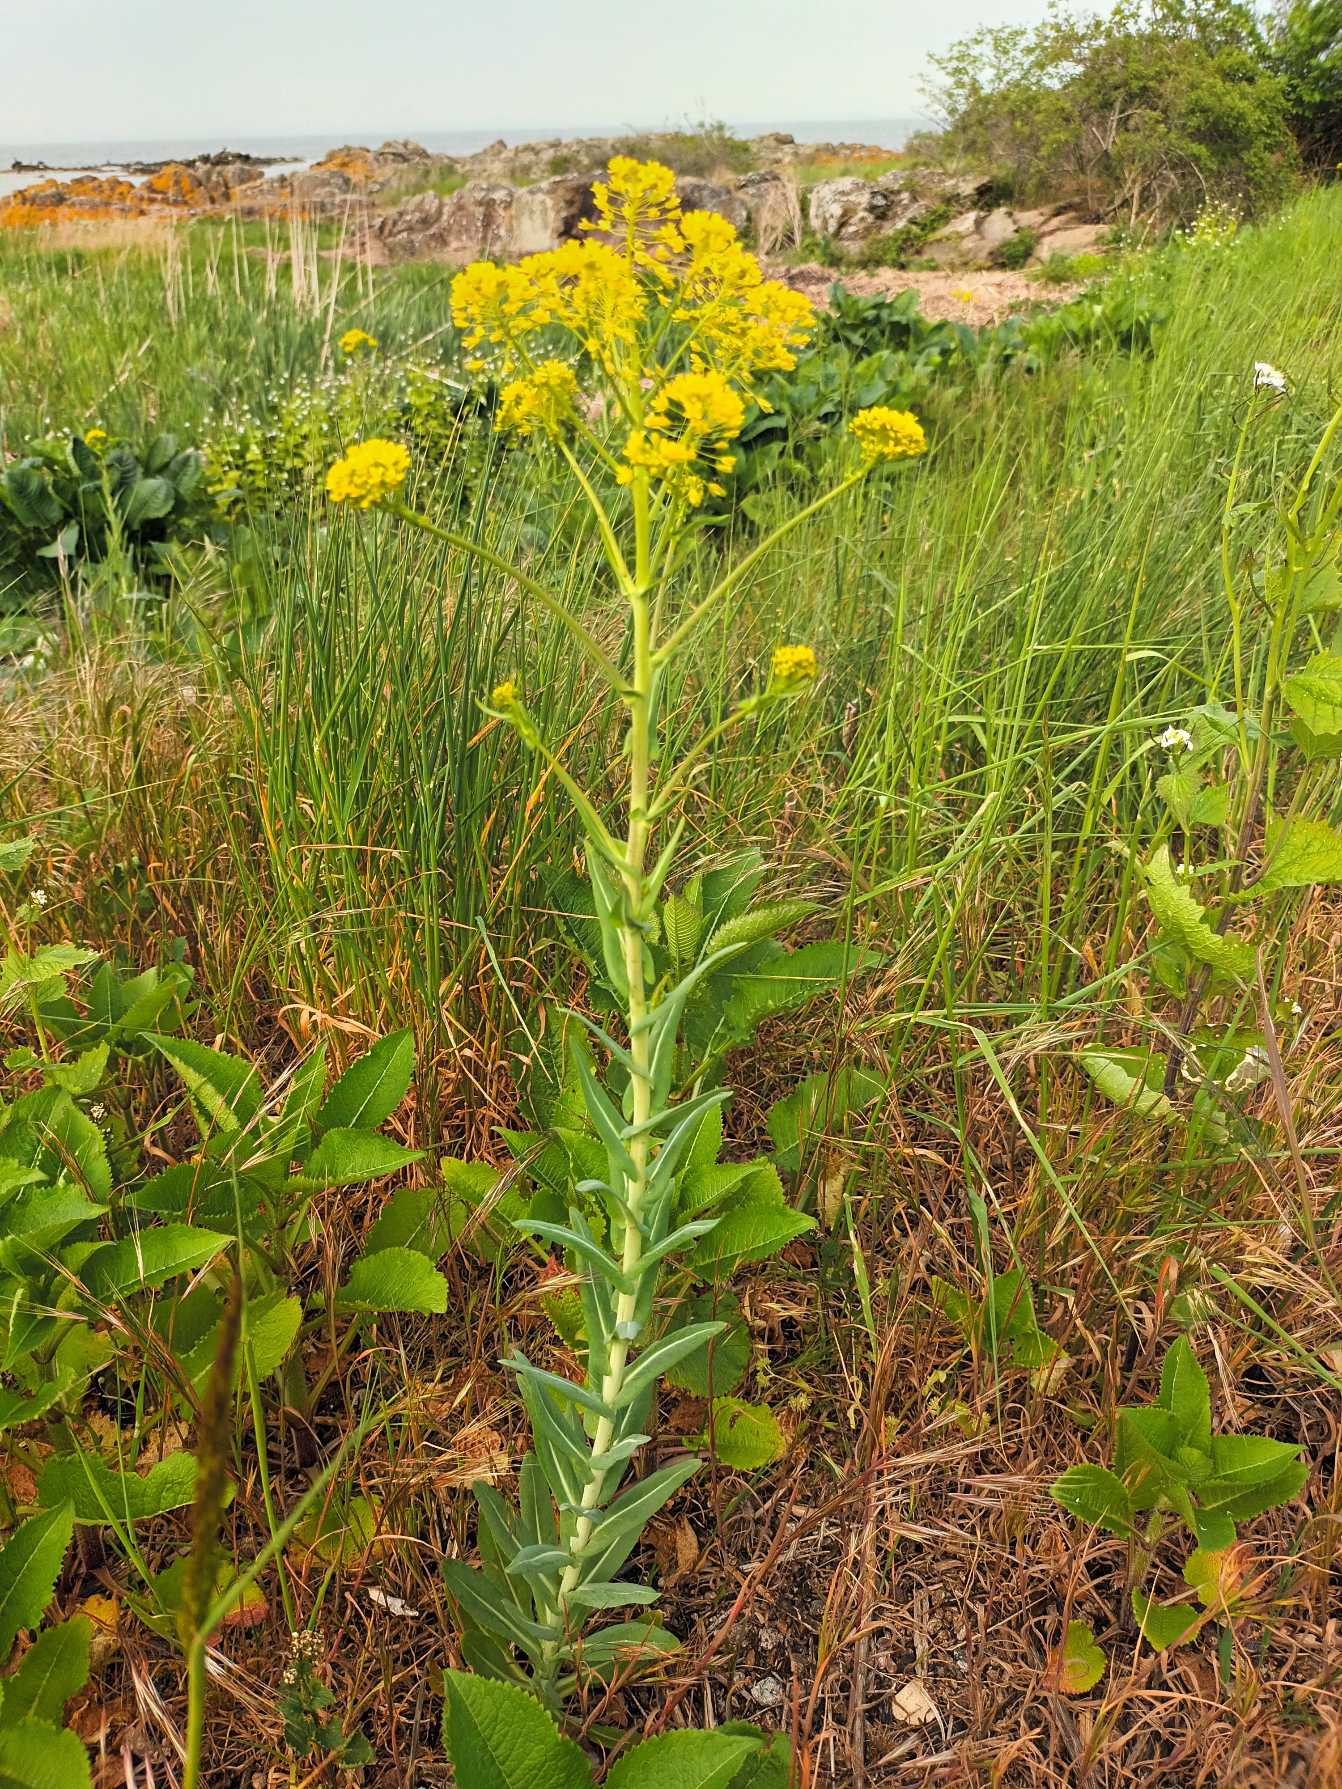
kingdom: Plantae
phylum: Tracheophyta
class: Magnoliopsida
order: Brassicales
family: Brassicaceae
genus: Isatis
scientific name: Isatis tinctoria
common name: Farve-vajd
